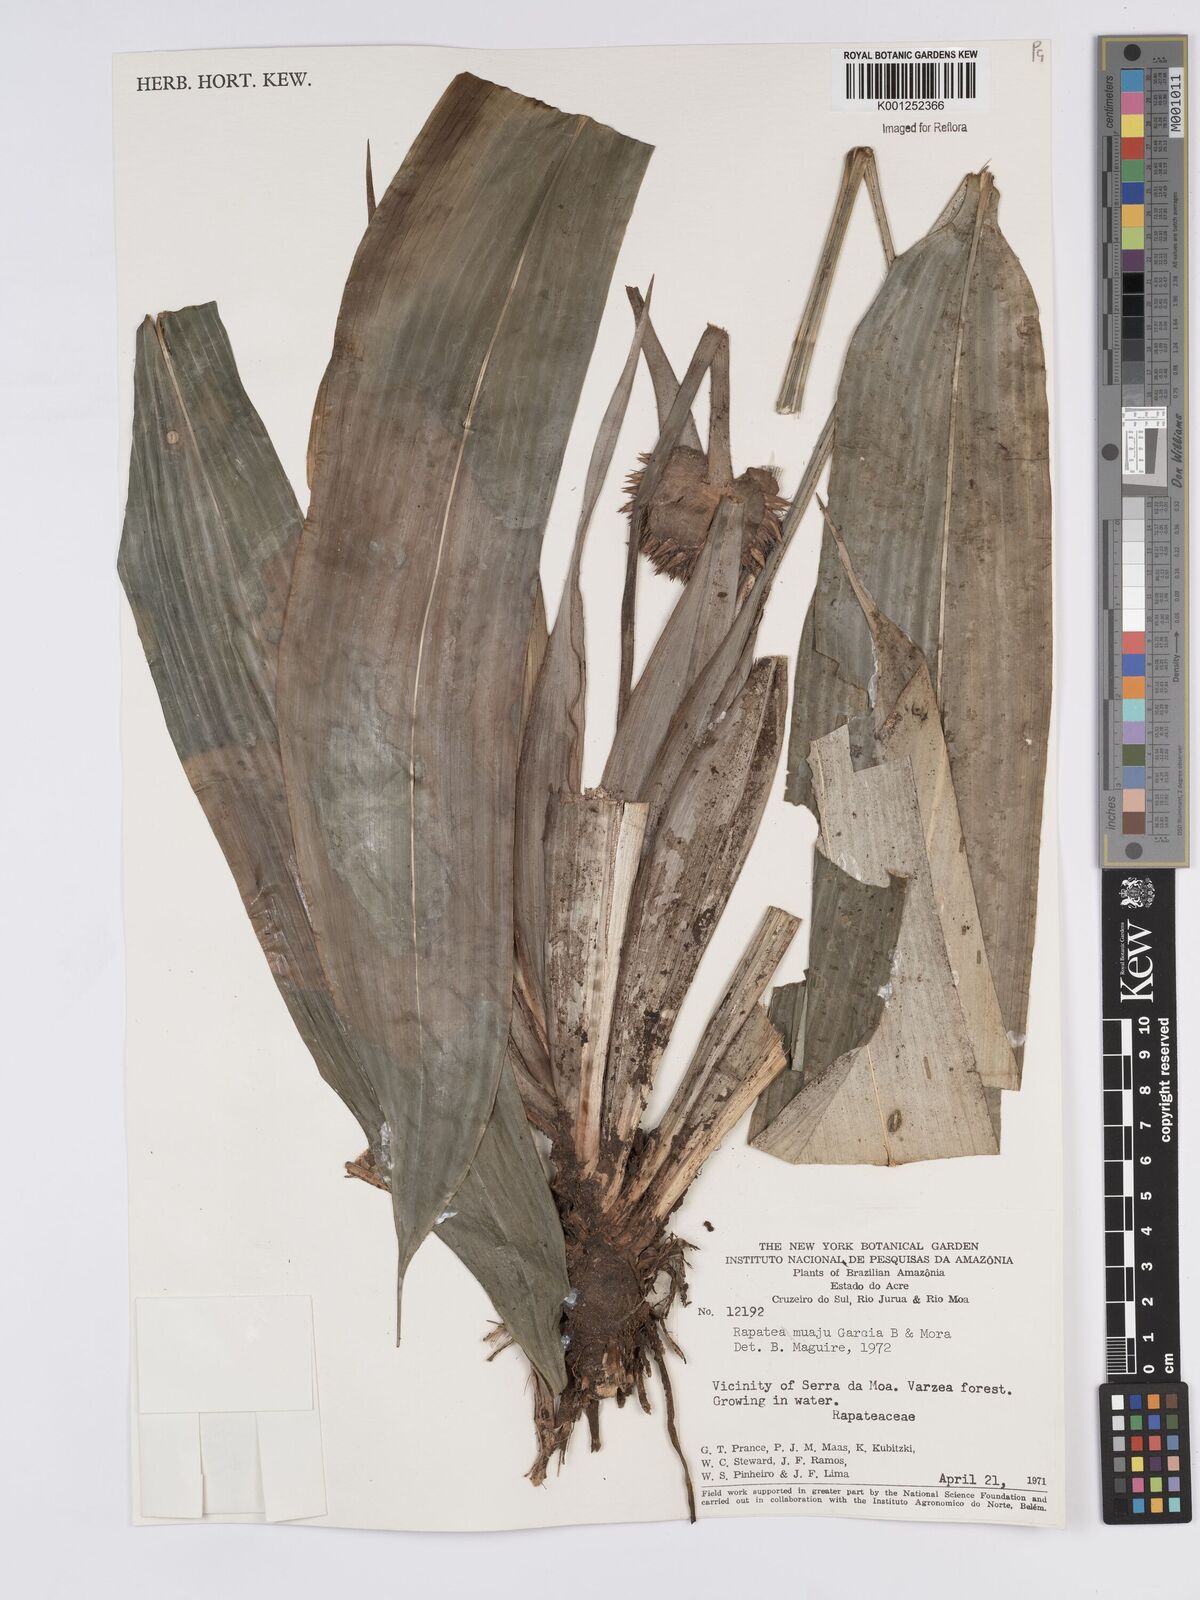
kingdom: Plantae
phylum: Tracheophyta
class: Liliopsida
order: Poales
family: Rapateaceae
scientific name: Rapateaceae
